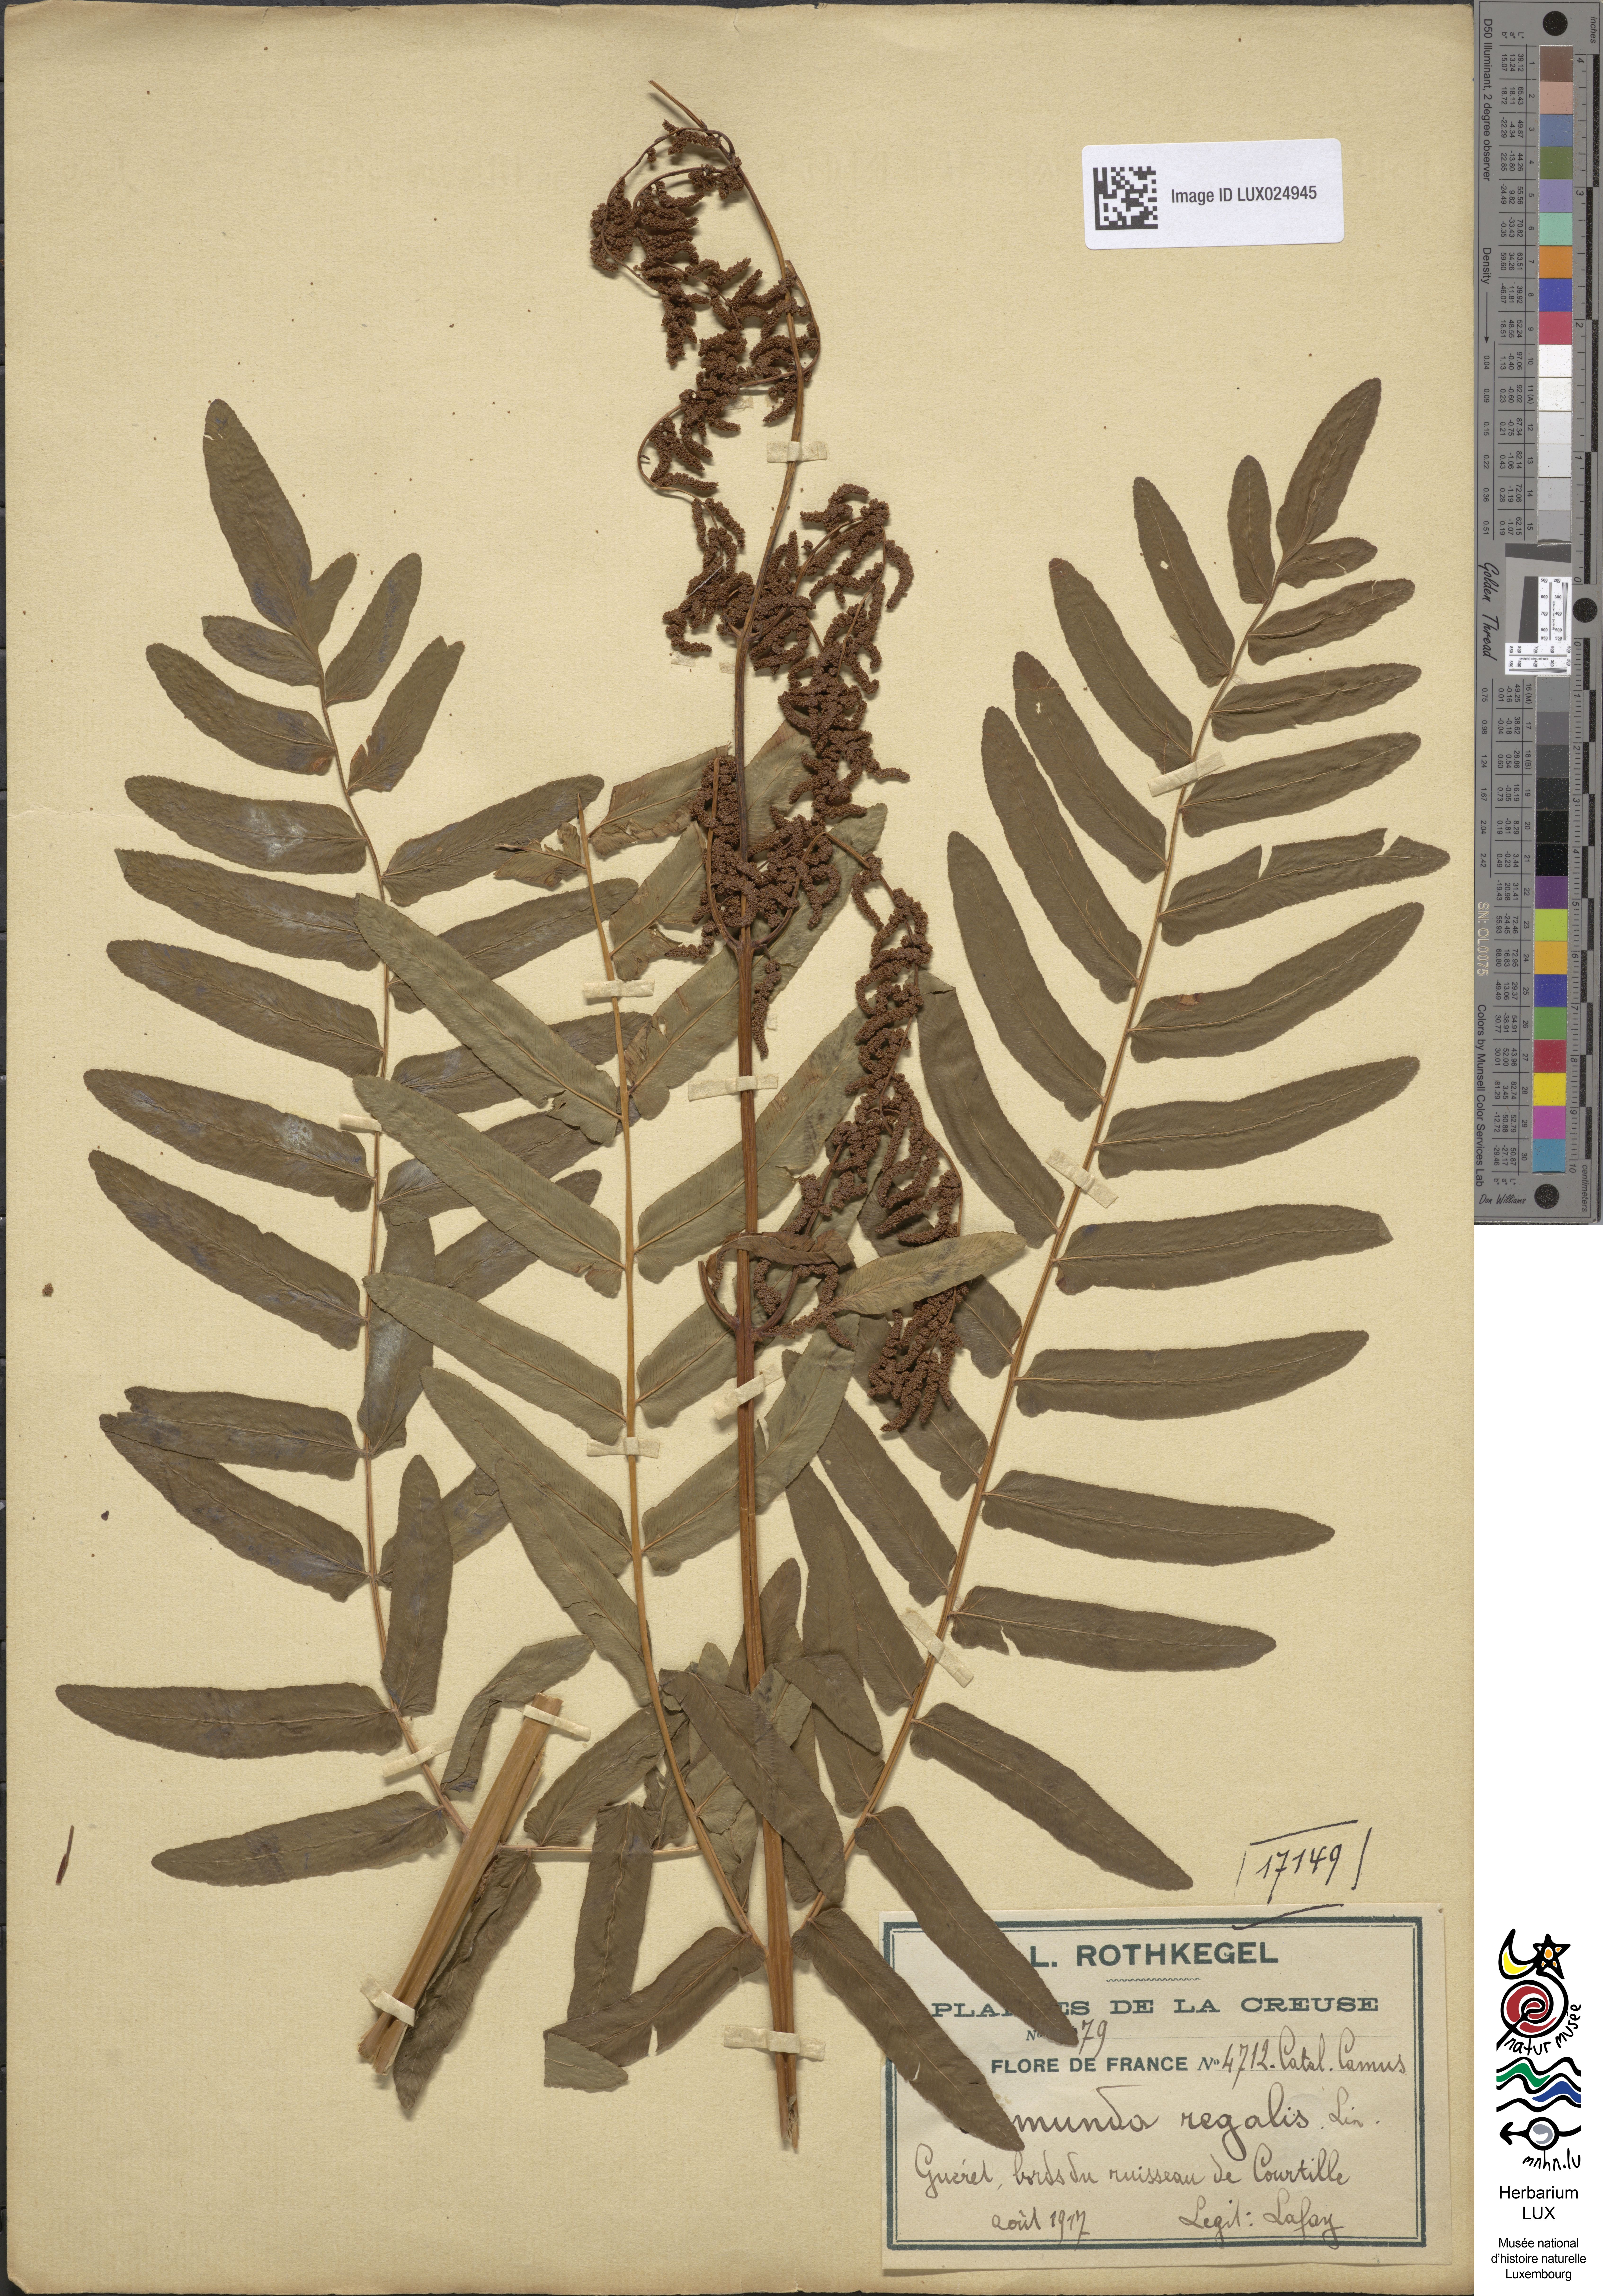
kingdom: Plantae
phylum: Tracheophyta
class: Polypodiopsida
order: Osmundales
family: Osmundaceae
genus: Osmunda
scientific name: Osmunda regalis
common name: Royal fern
